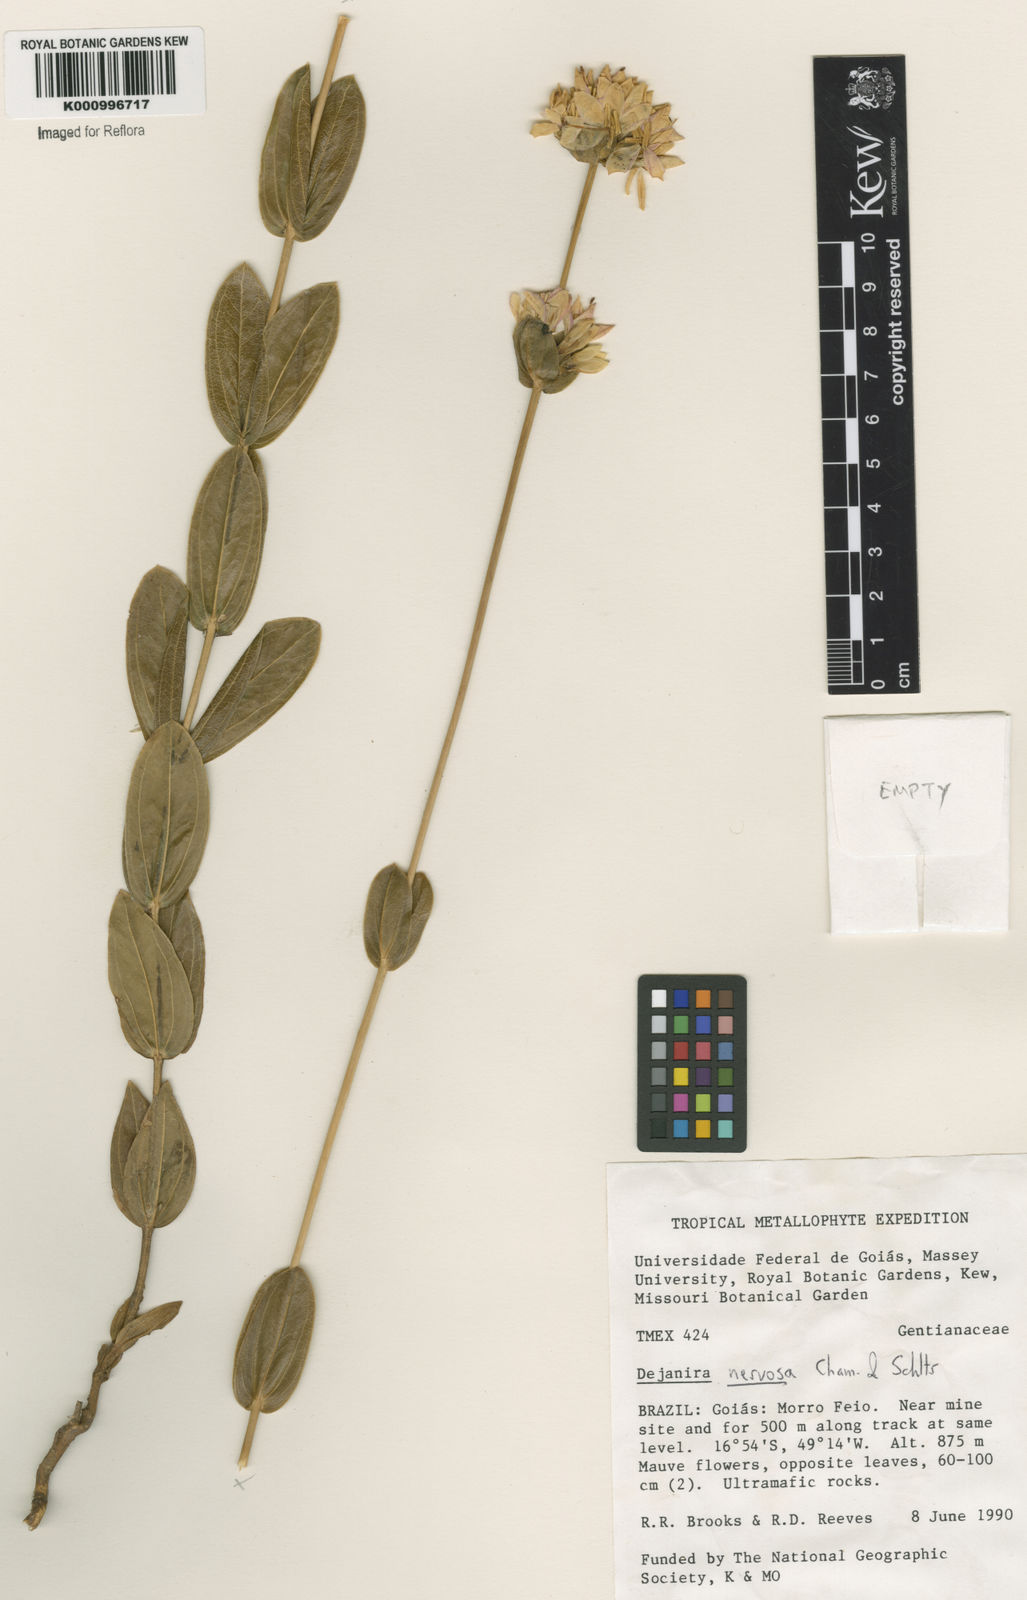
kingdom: Plantae
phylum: Tracheophyta
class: Magnoliopsida
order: Gentianales
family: Gentianaceae
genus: Deianira
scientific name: Deianira nervosa
